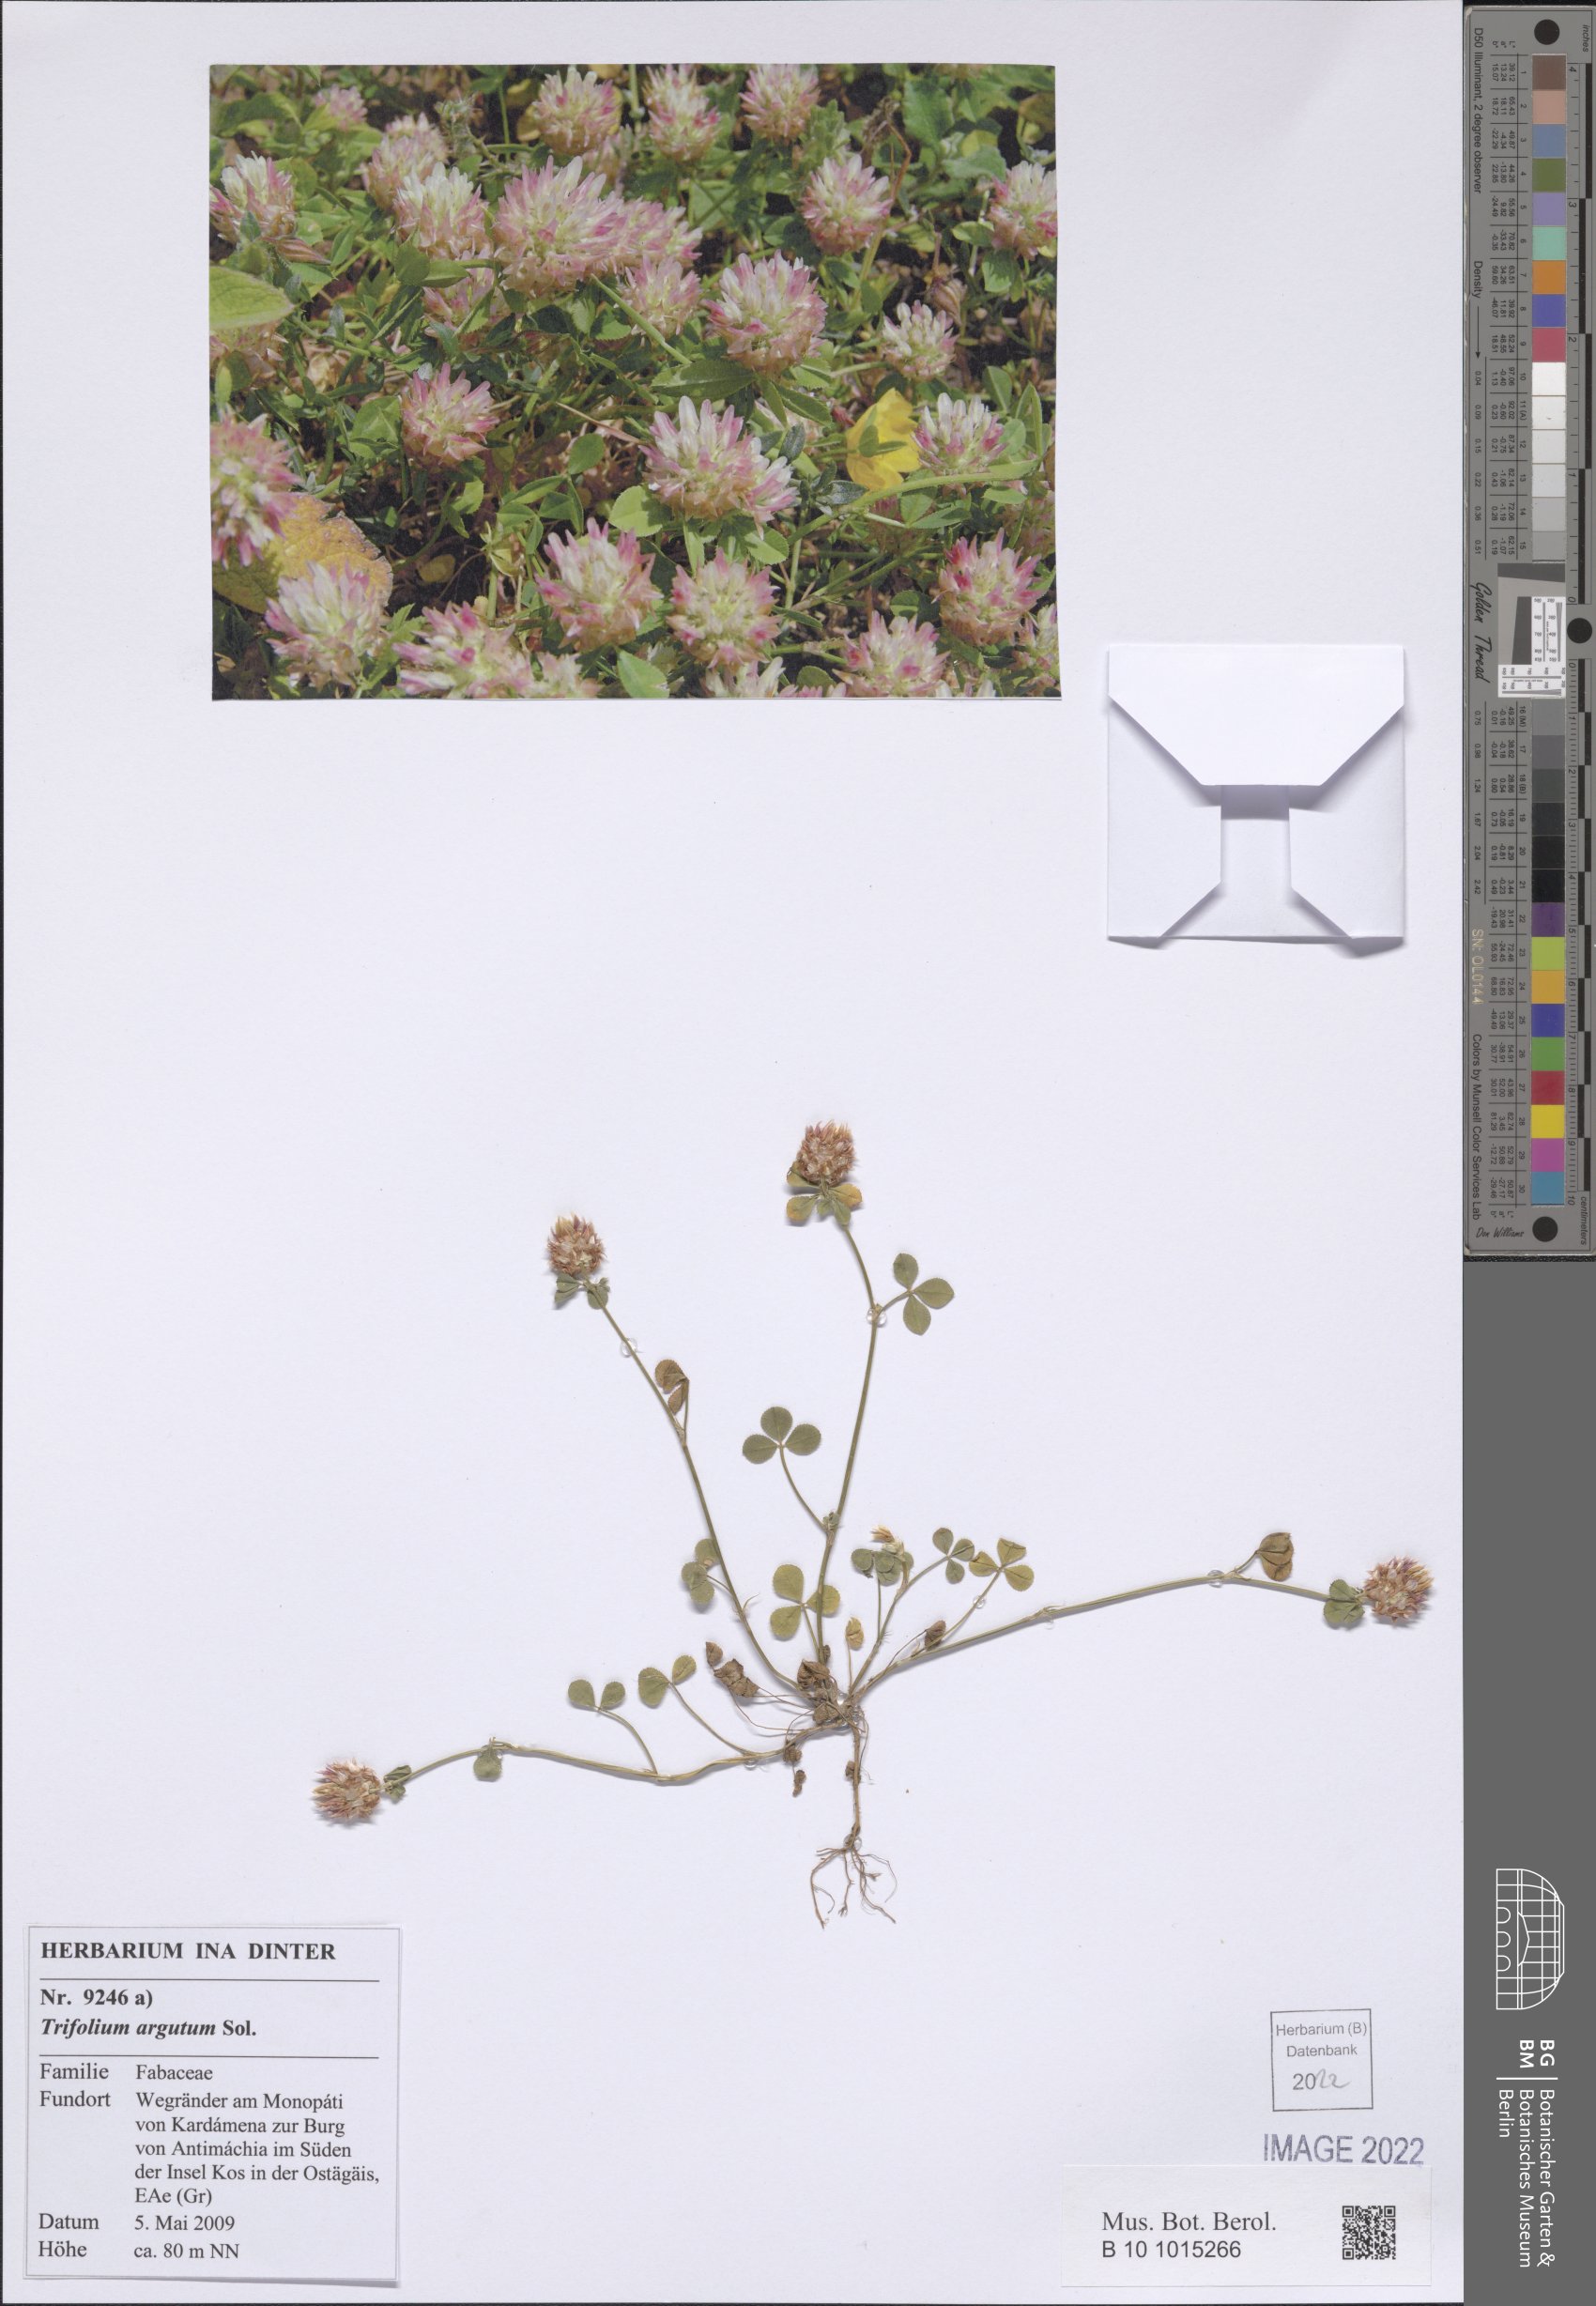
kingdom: Plantae
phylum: Tracheophyta
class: Magnoliopsida
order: Fabales
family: Fabaceae
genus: Trifolium
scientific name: Trifolium argutum
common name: Sharp-tooth clover
